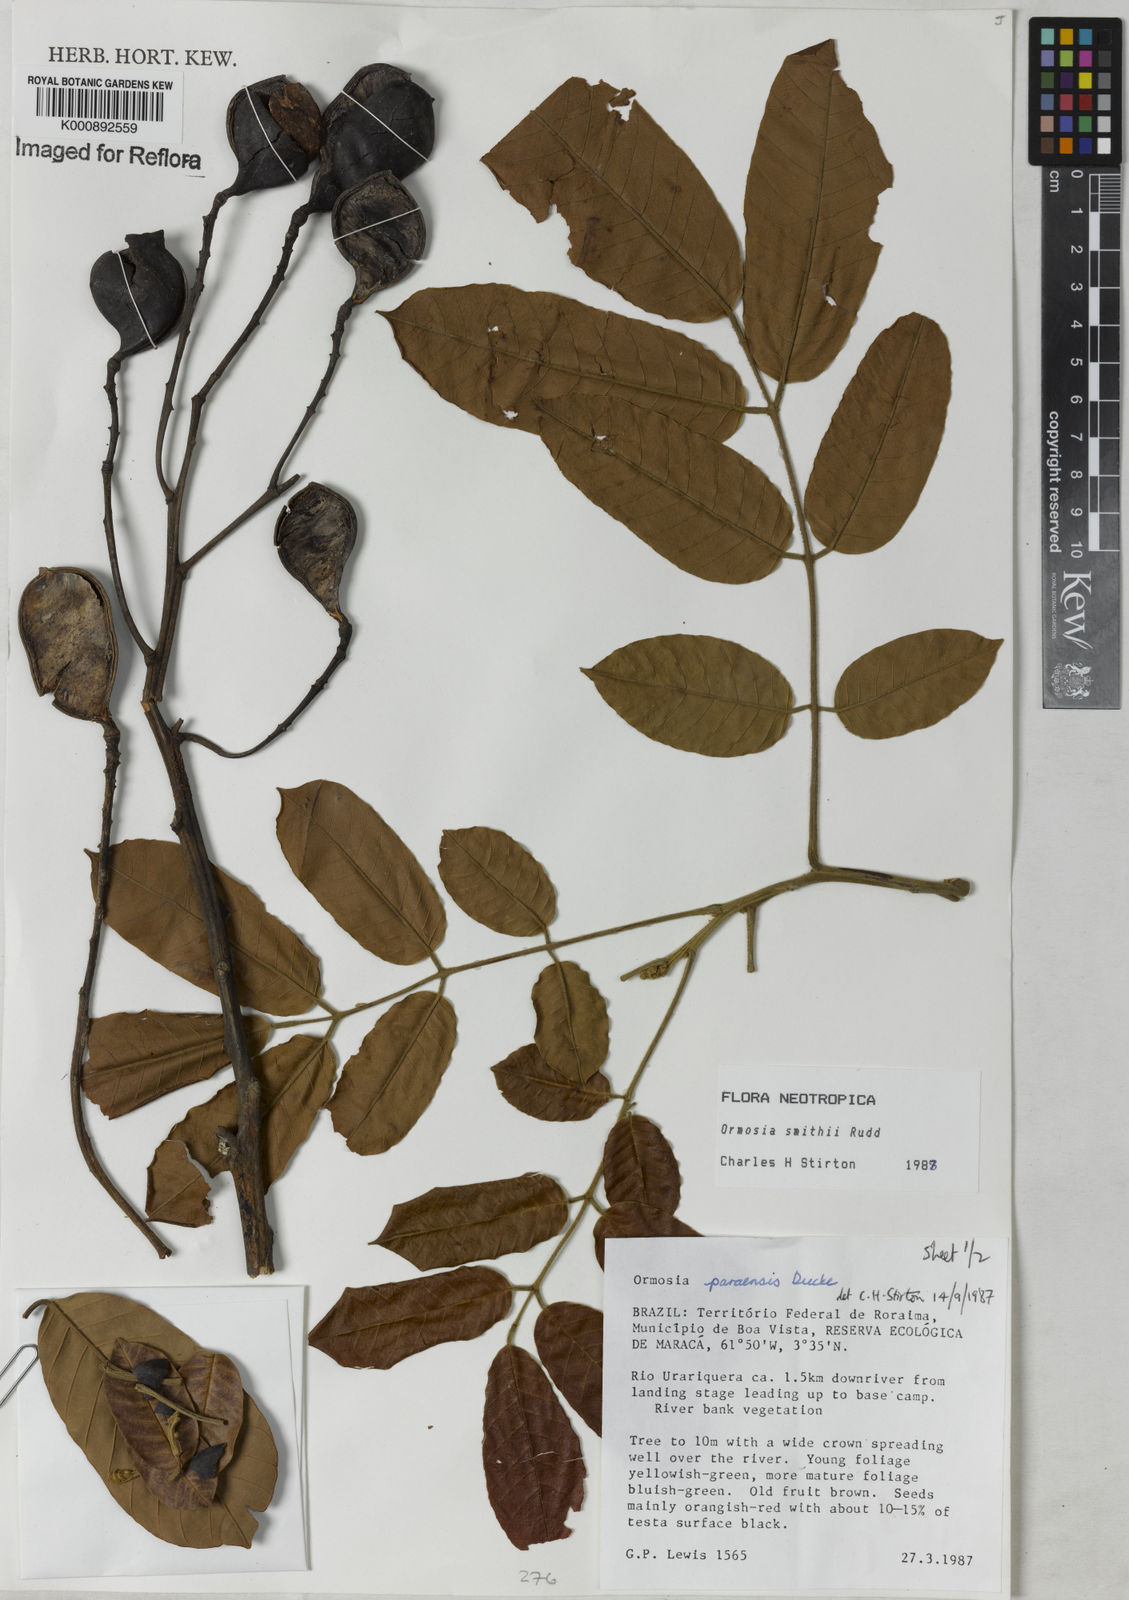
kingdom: Plantae
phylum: Tracheophyta
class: Magnoliopsida
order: Fabales
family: Fabaceae
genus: Ormosia
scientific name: Ormosia smithii
